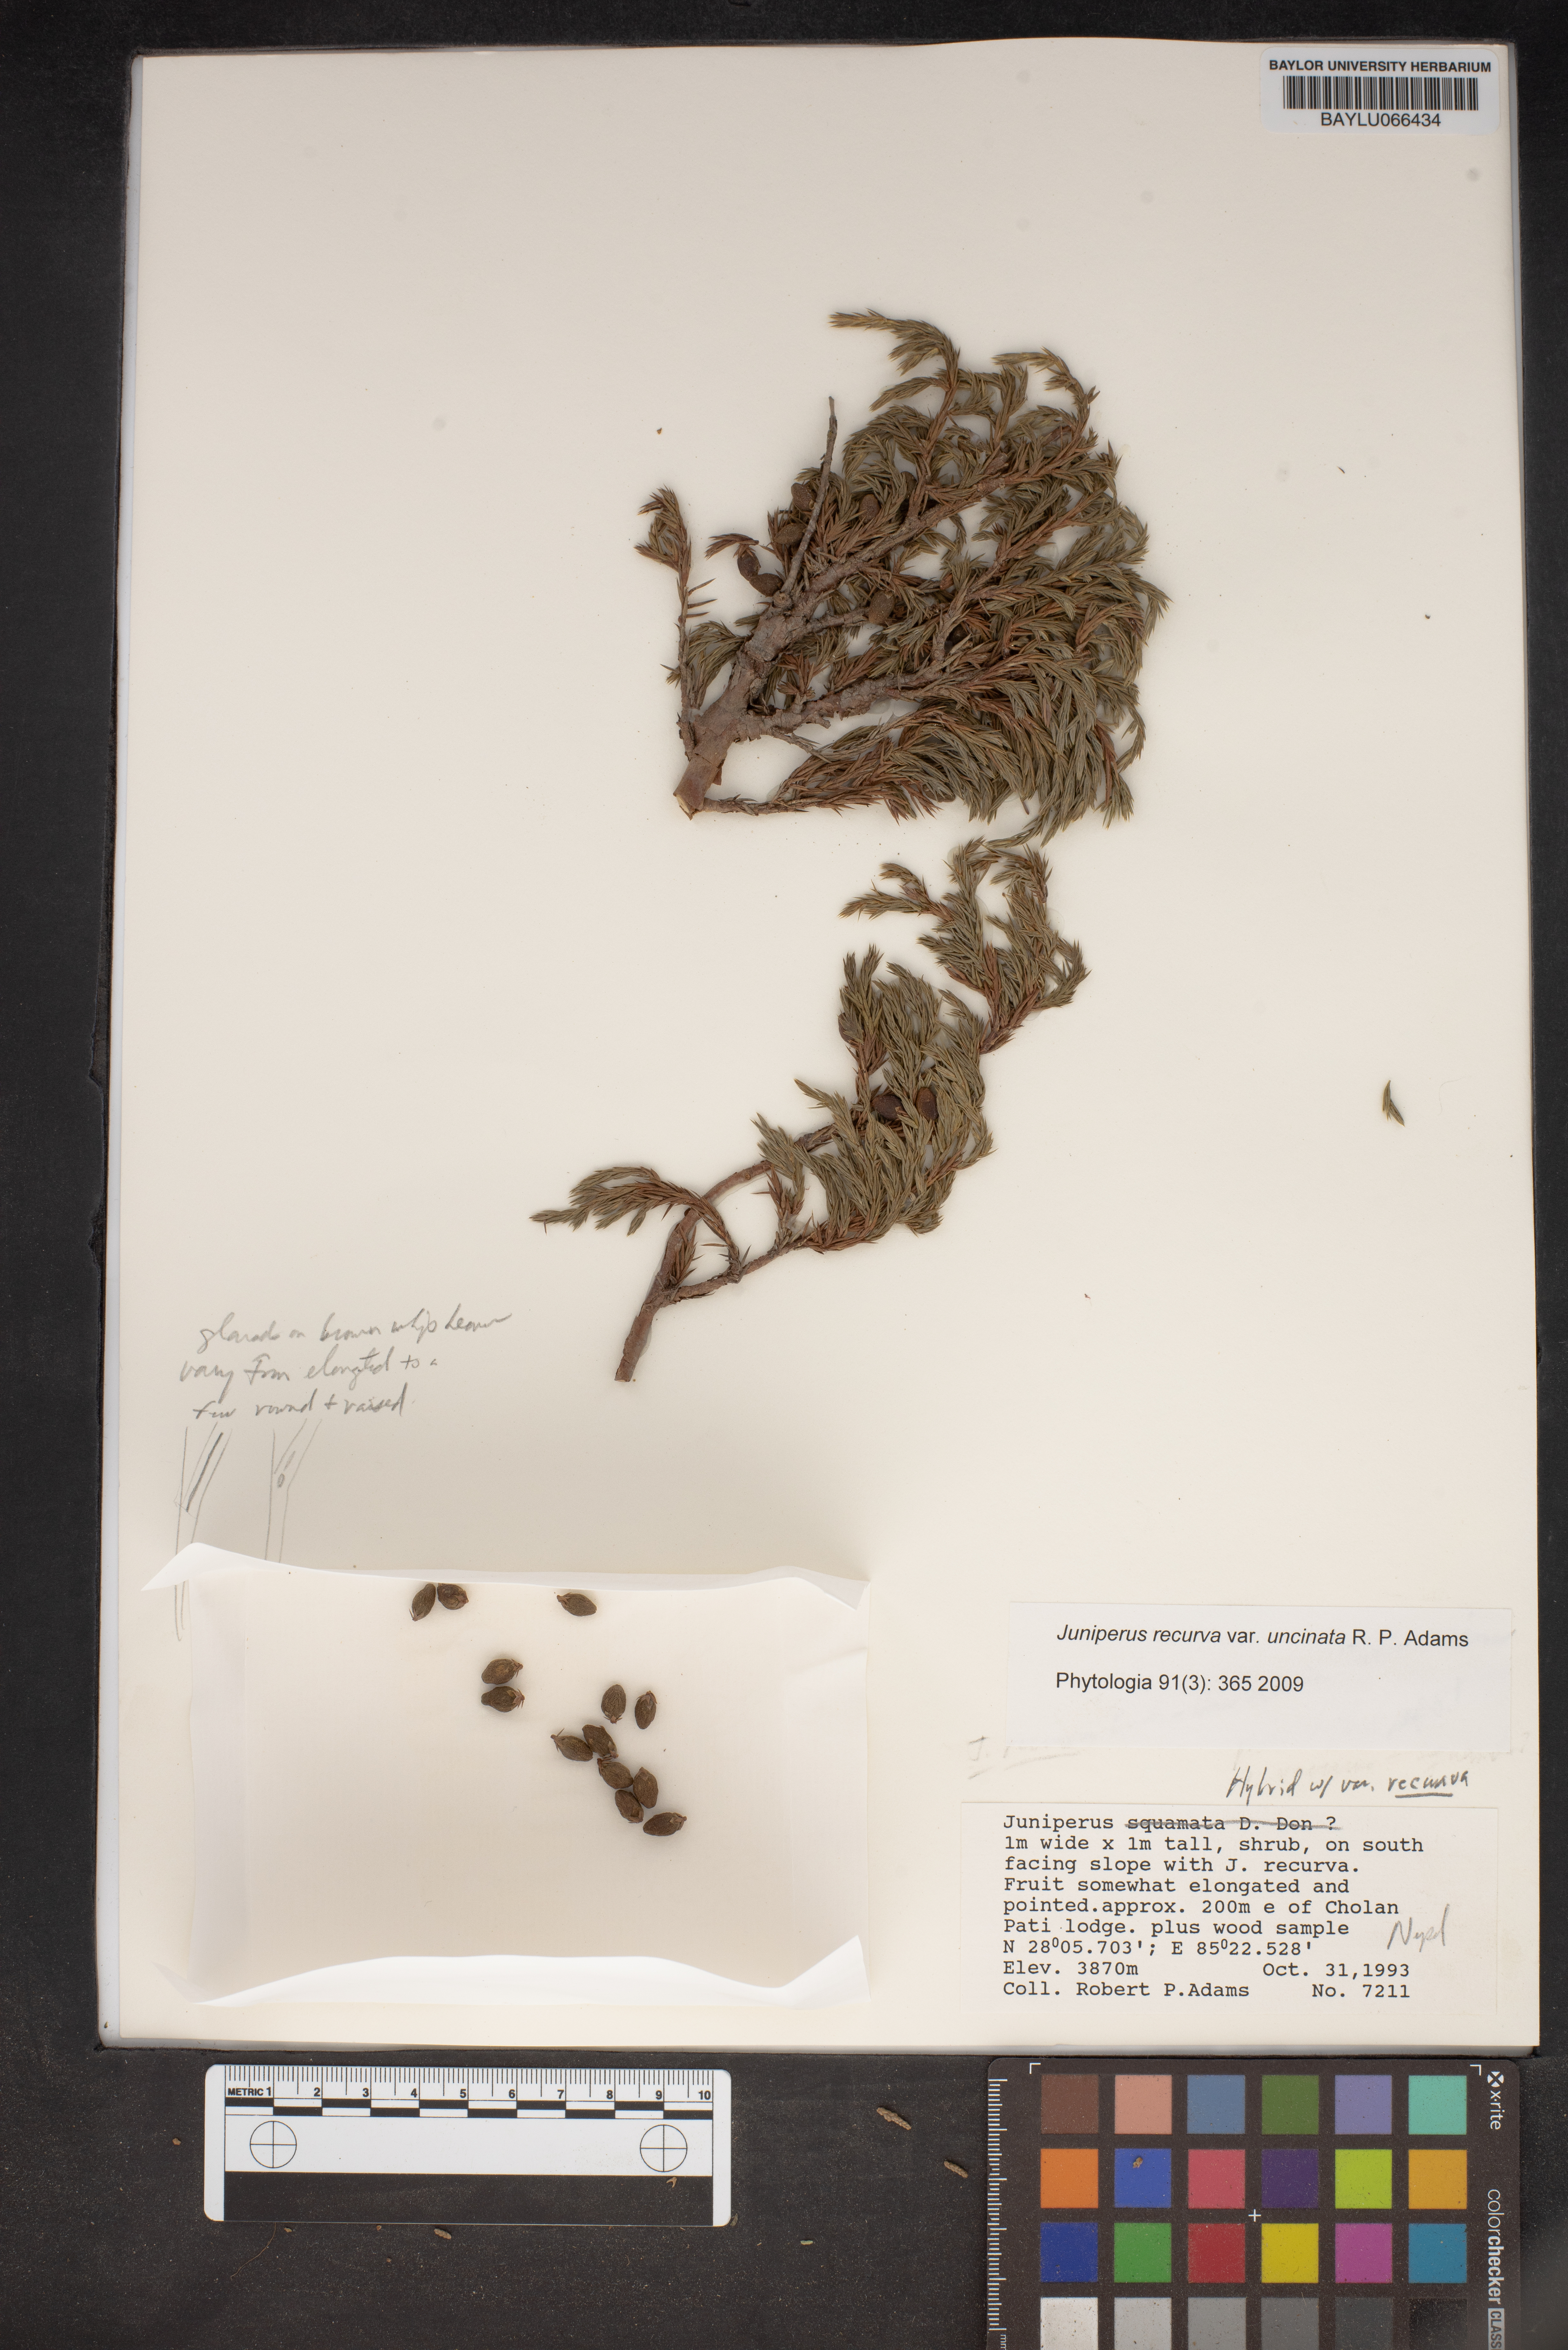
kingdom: Plantae
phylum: Tracheophyta
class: Pinopsida
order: Pinales
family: Cupressaceae
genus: Juniperus
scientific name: Juniperus recurva
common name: Drooping juniper
